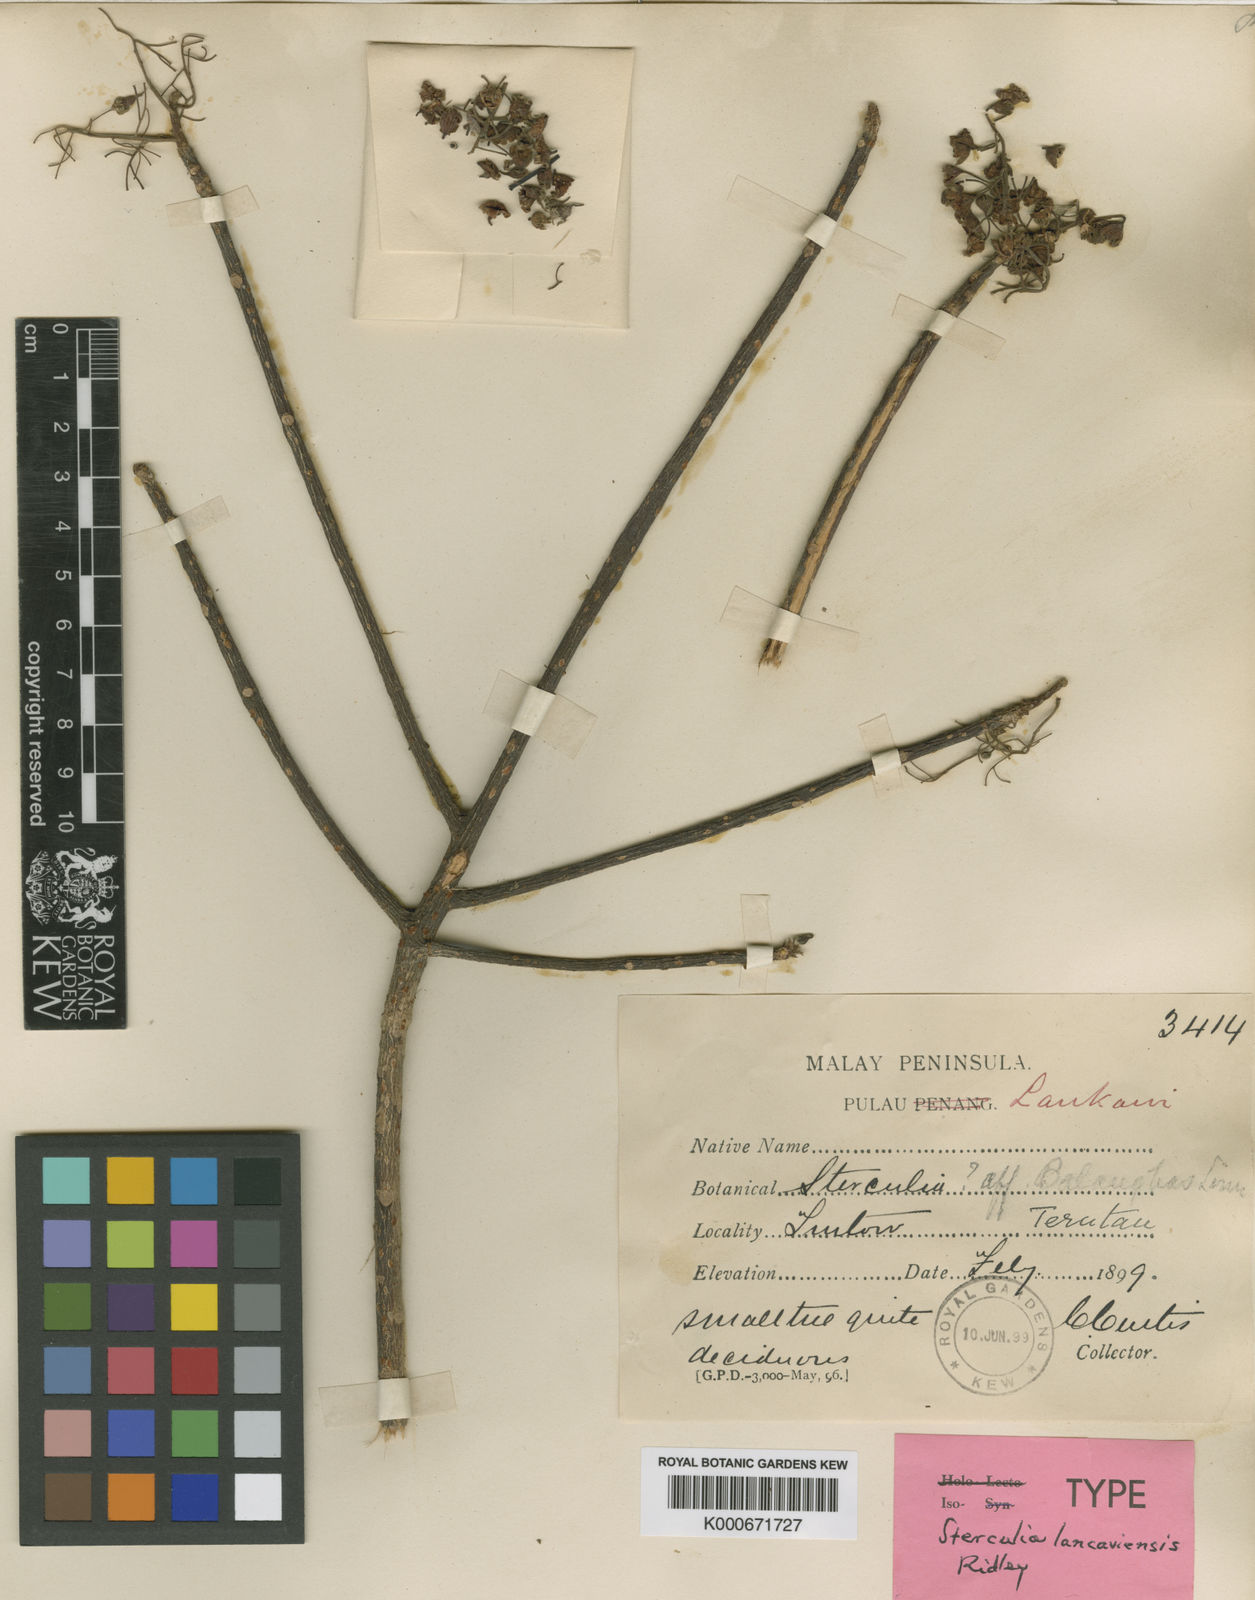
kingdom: Plantae
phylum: Tracheophyta
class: Magnoliopsida
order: Malvales
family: Malvaceae
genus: Sterculia
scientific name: Sterculia lancaviensis
